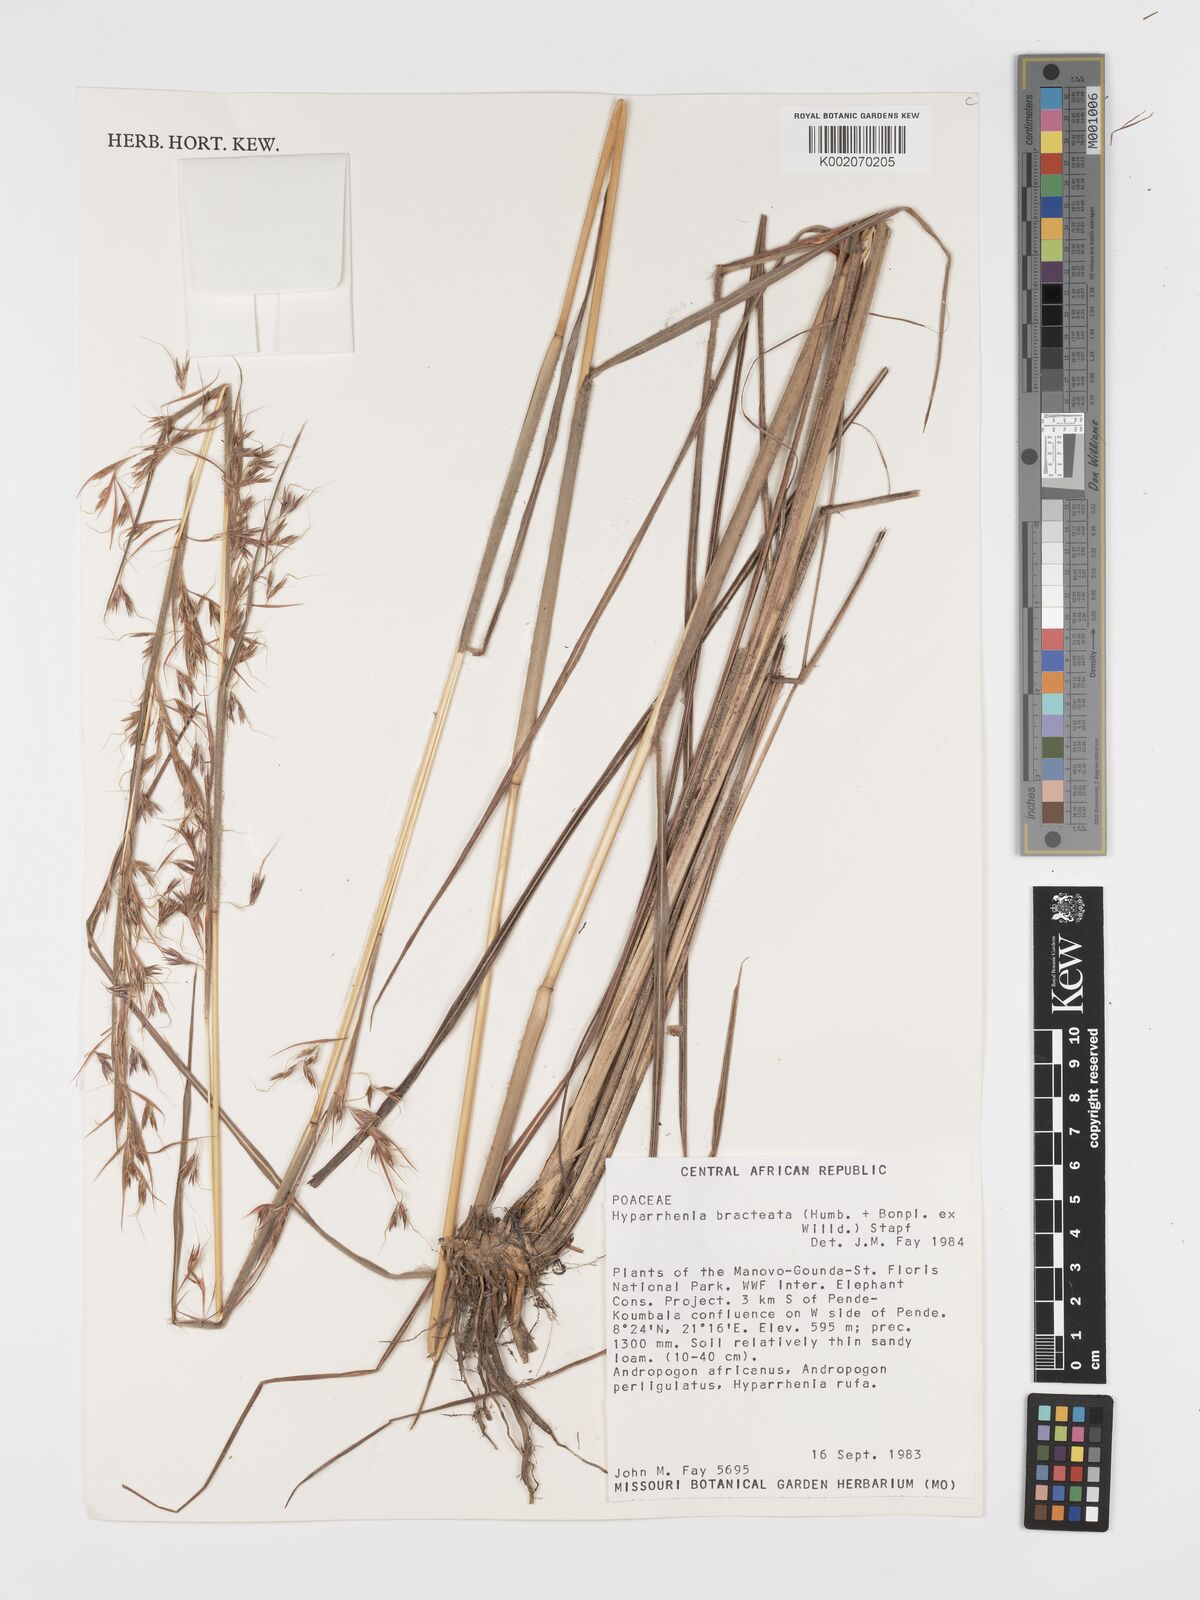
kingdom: Plantae
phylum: Tracheophyta
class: Liliopsida
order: Poales
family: Poaceae
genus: Hyparrhenia
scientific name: Hyparrhenia bracteata
